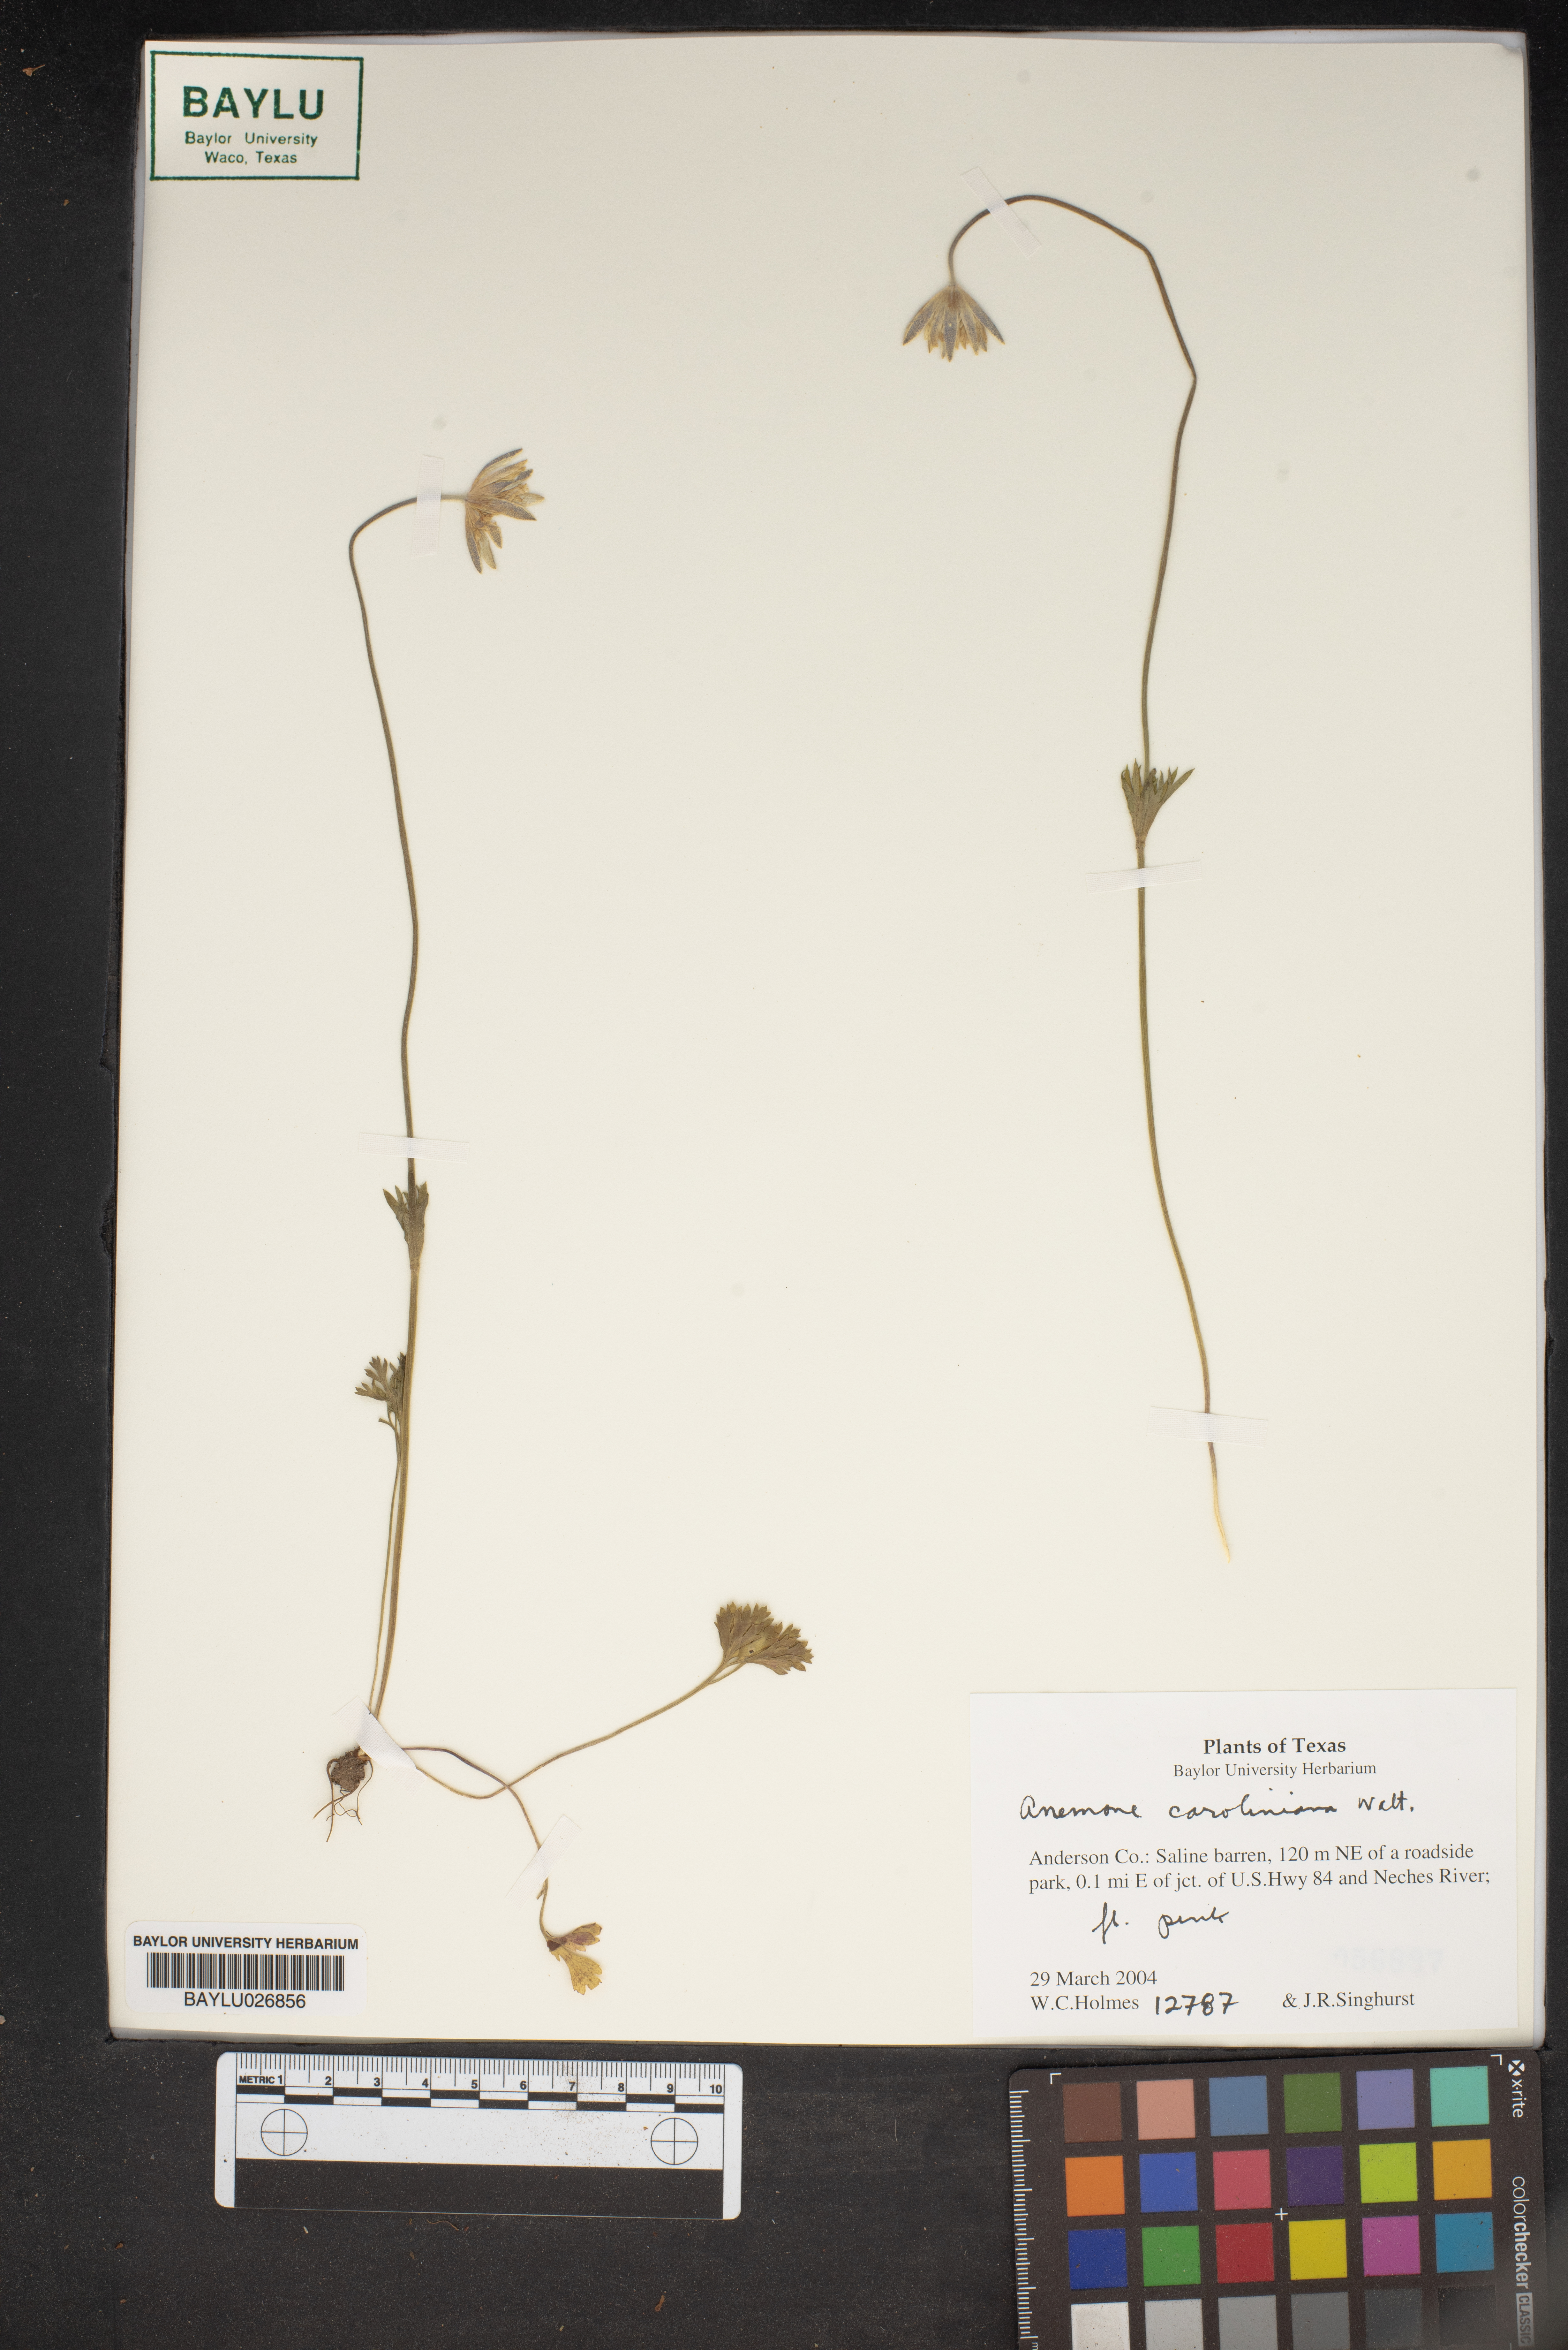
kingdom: Plantae
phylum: Tracheophyta
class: Magnoliopsida
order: Ranunculales
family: Ranunculaceae
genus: Anemone
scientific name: Anemone caroliniana
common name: Carolina anemone
